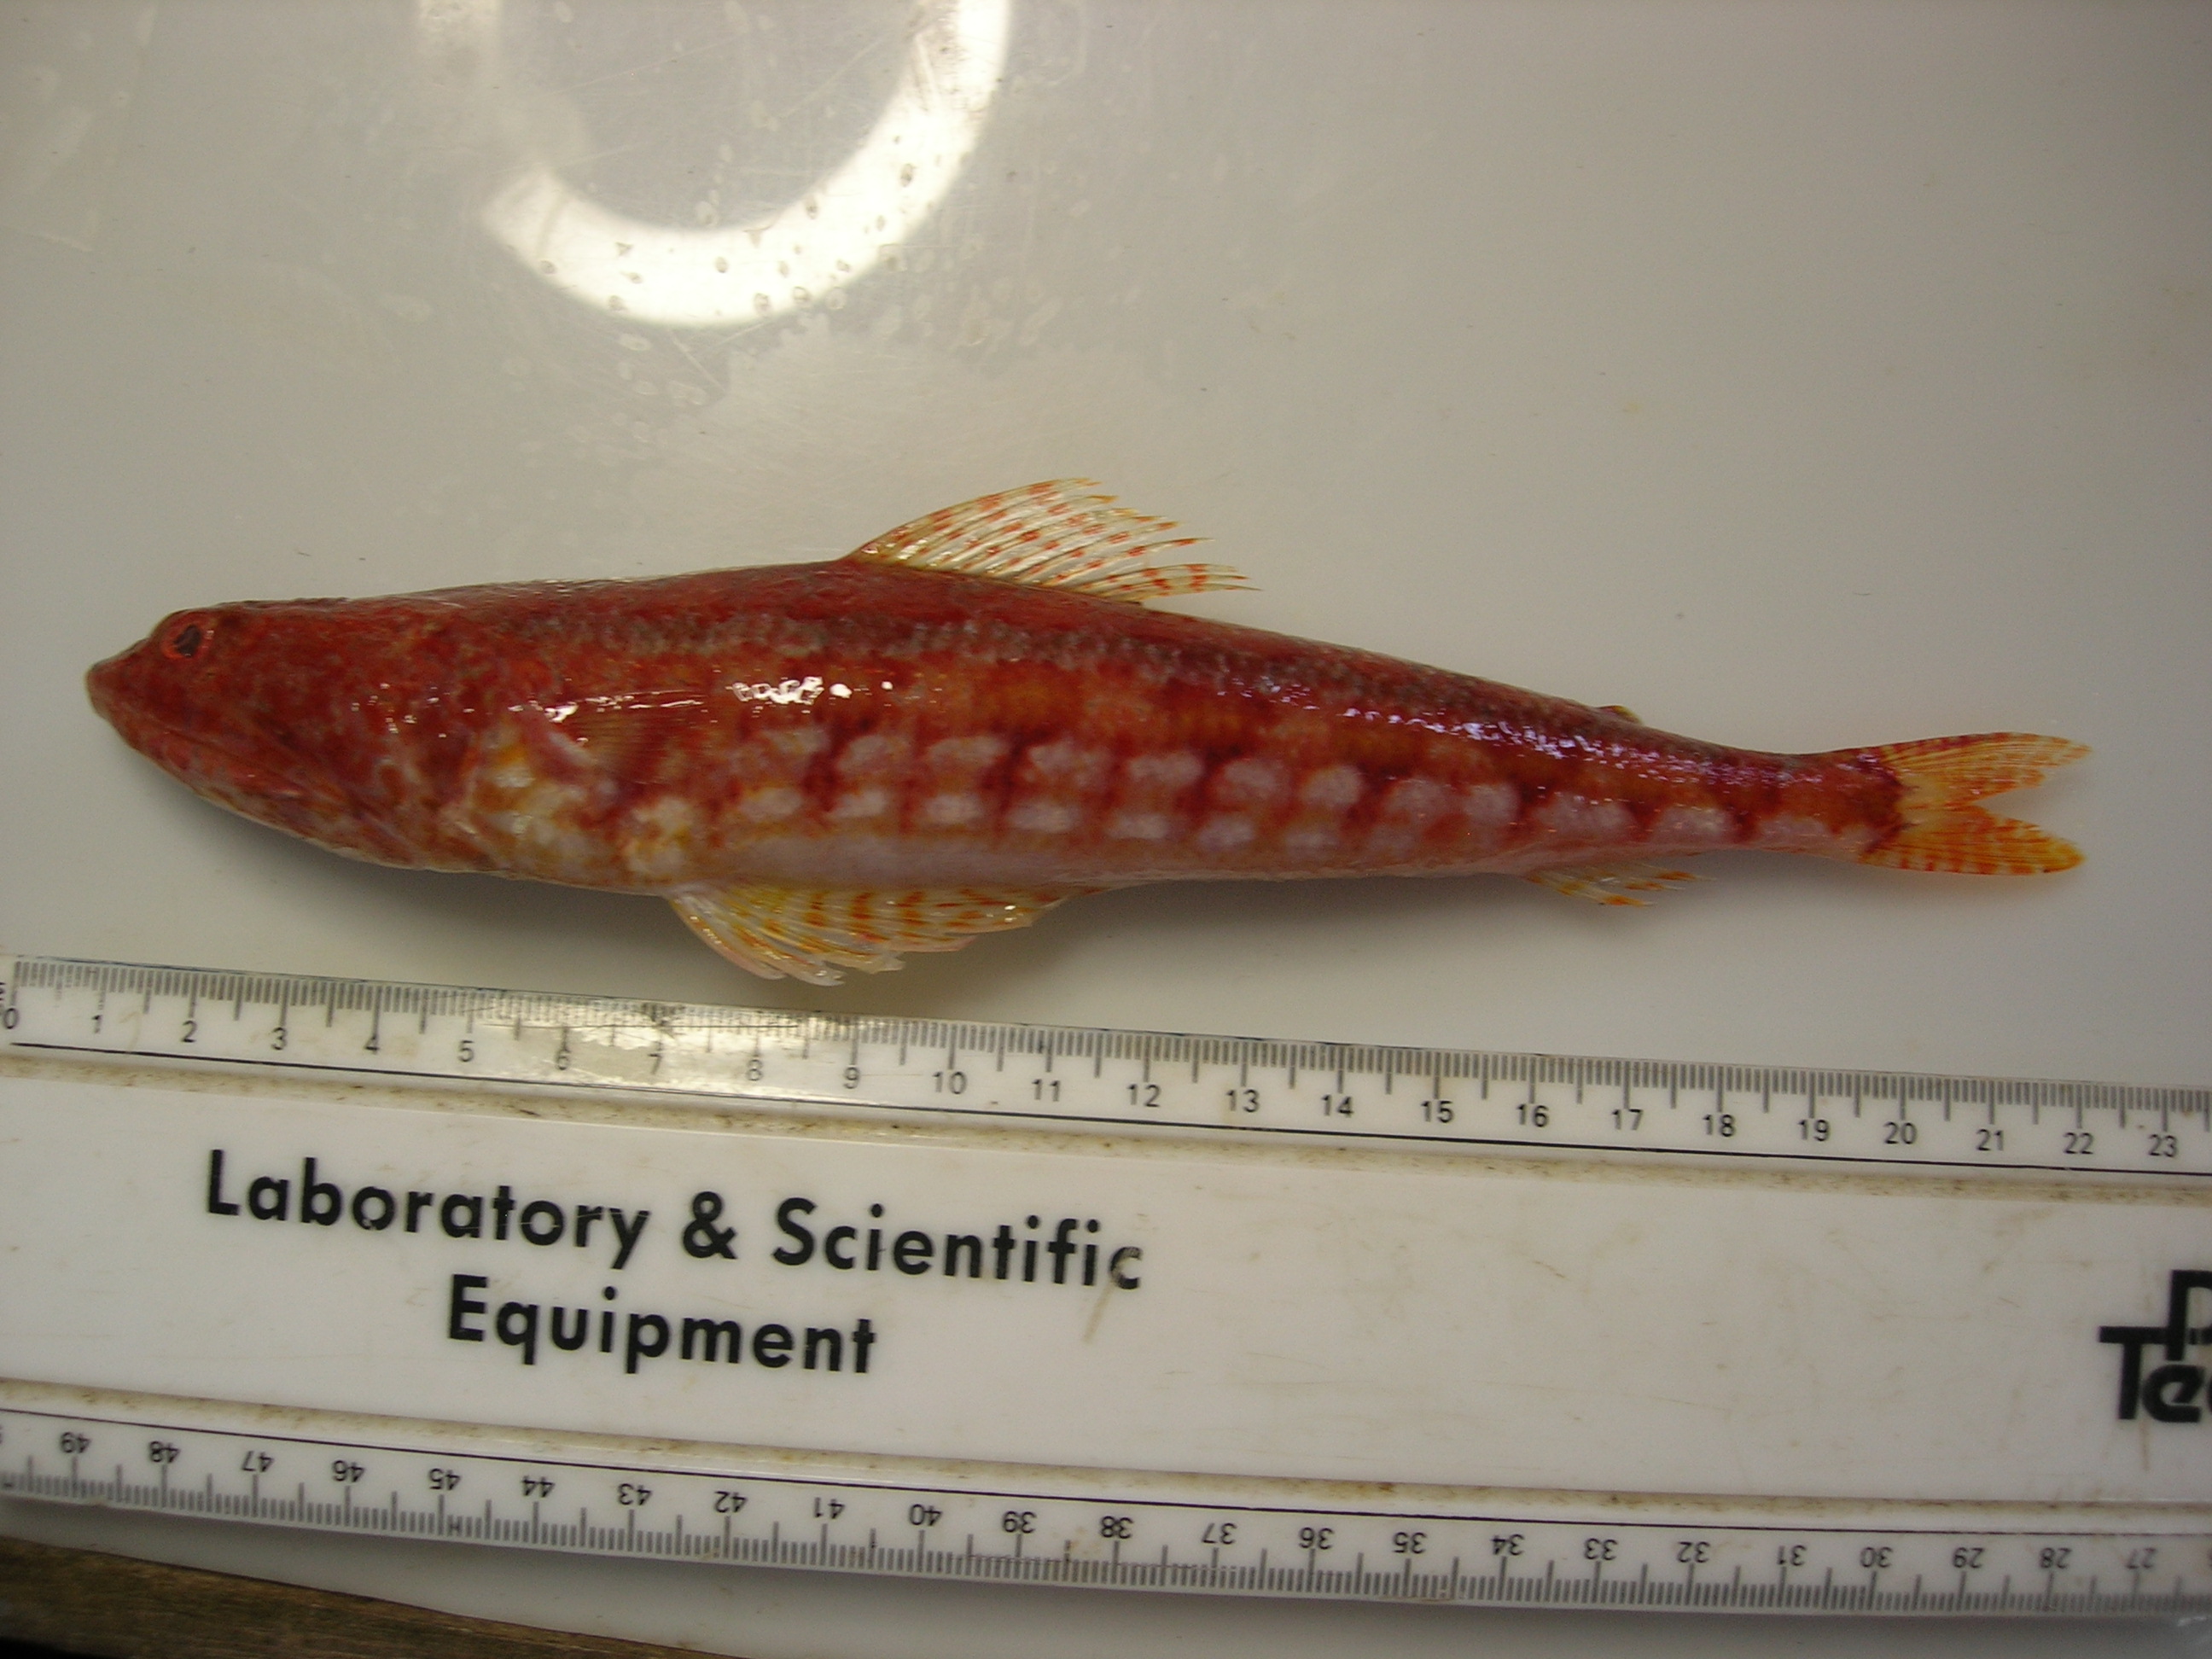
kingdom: Animalia
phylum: Chordata
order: Aulopiformes
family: Synodontidae
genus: Synodus
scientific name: Synodus variegatus
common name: Variegated lizardfish
